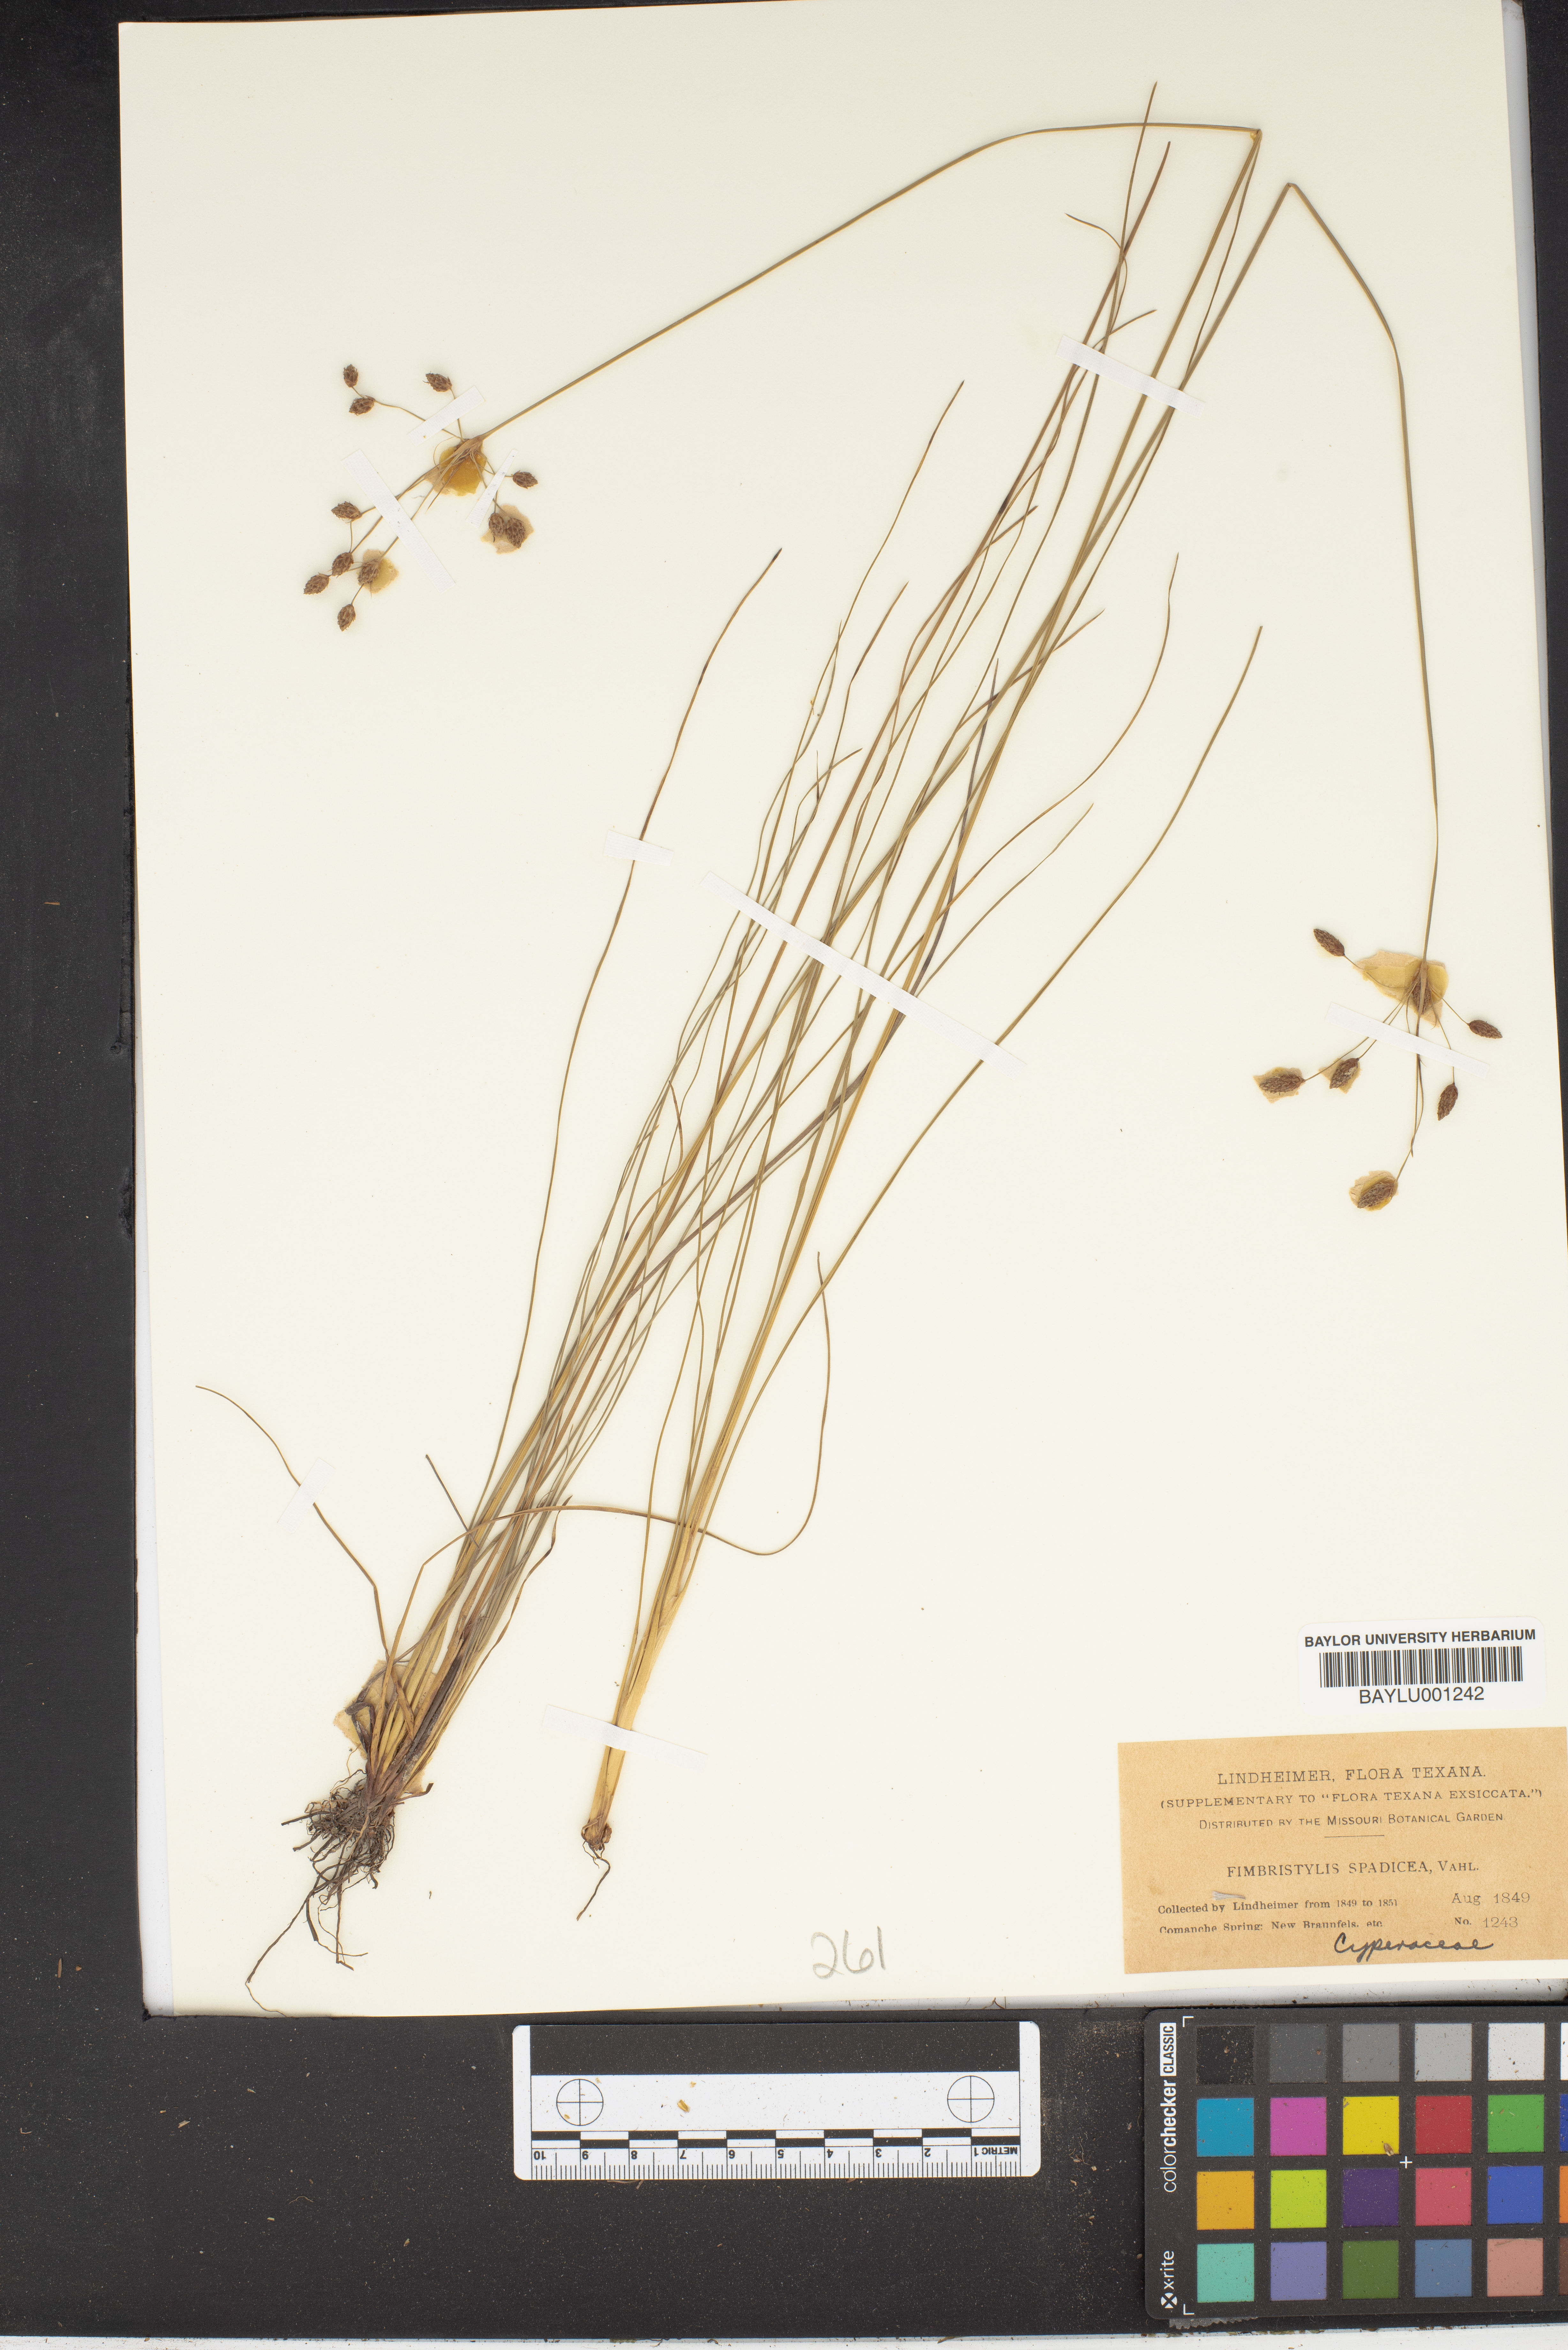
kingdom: Plantae
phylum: Tracheophyta
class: Liliopsida
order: Poales
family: Cyperaceae
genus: Fimbristylis
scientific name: Fimbristylis spadicea
